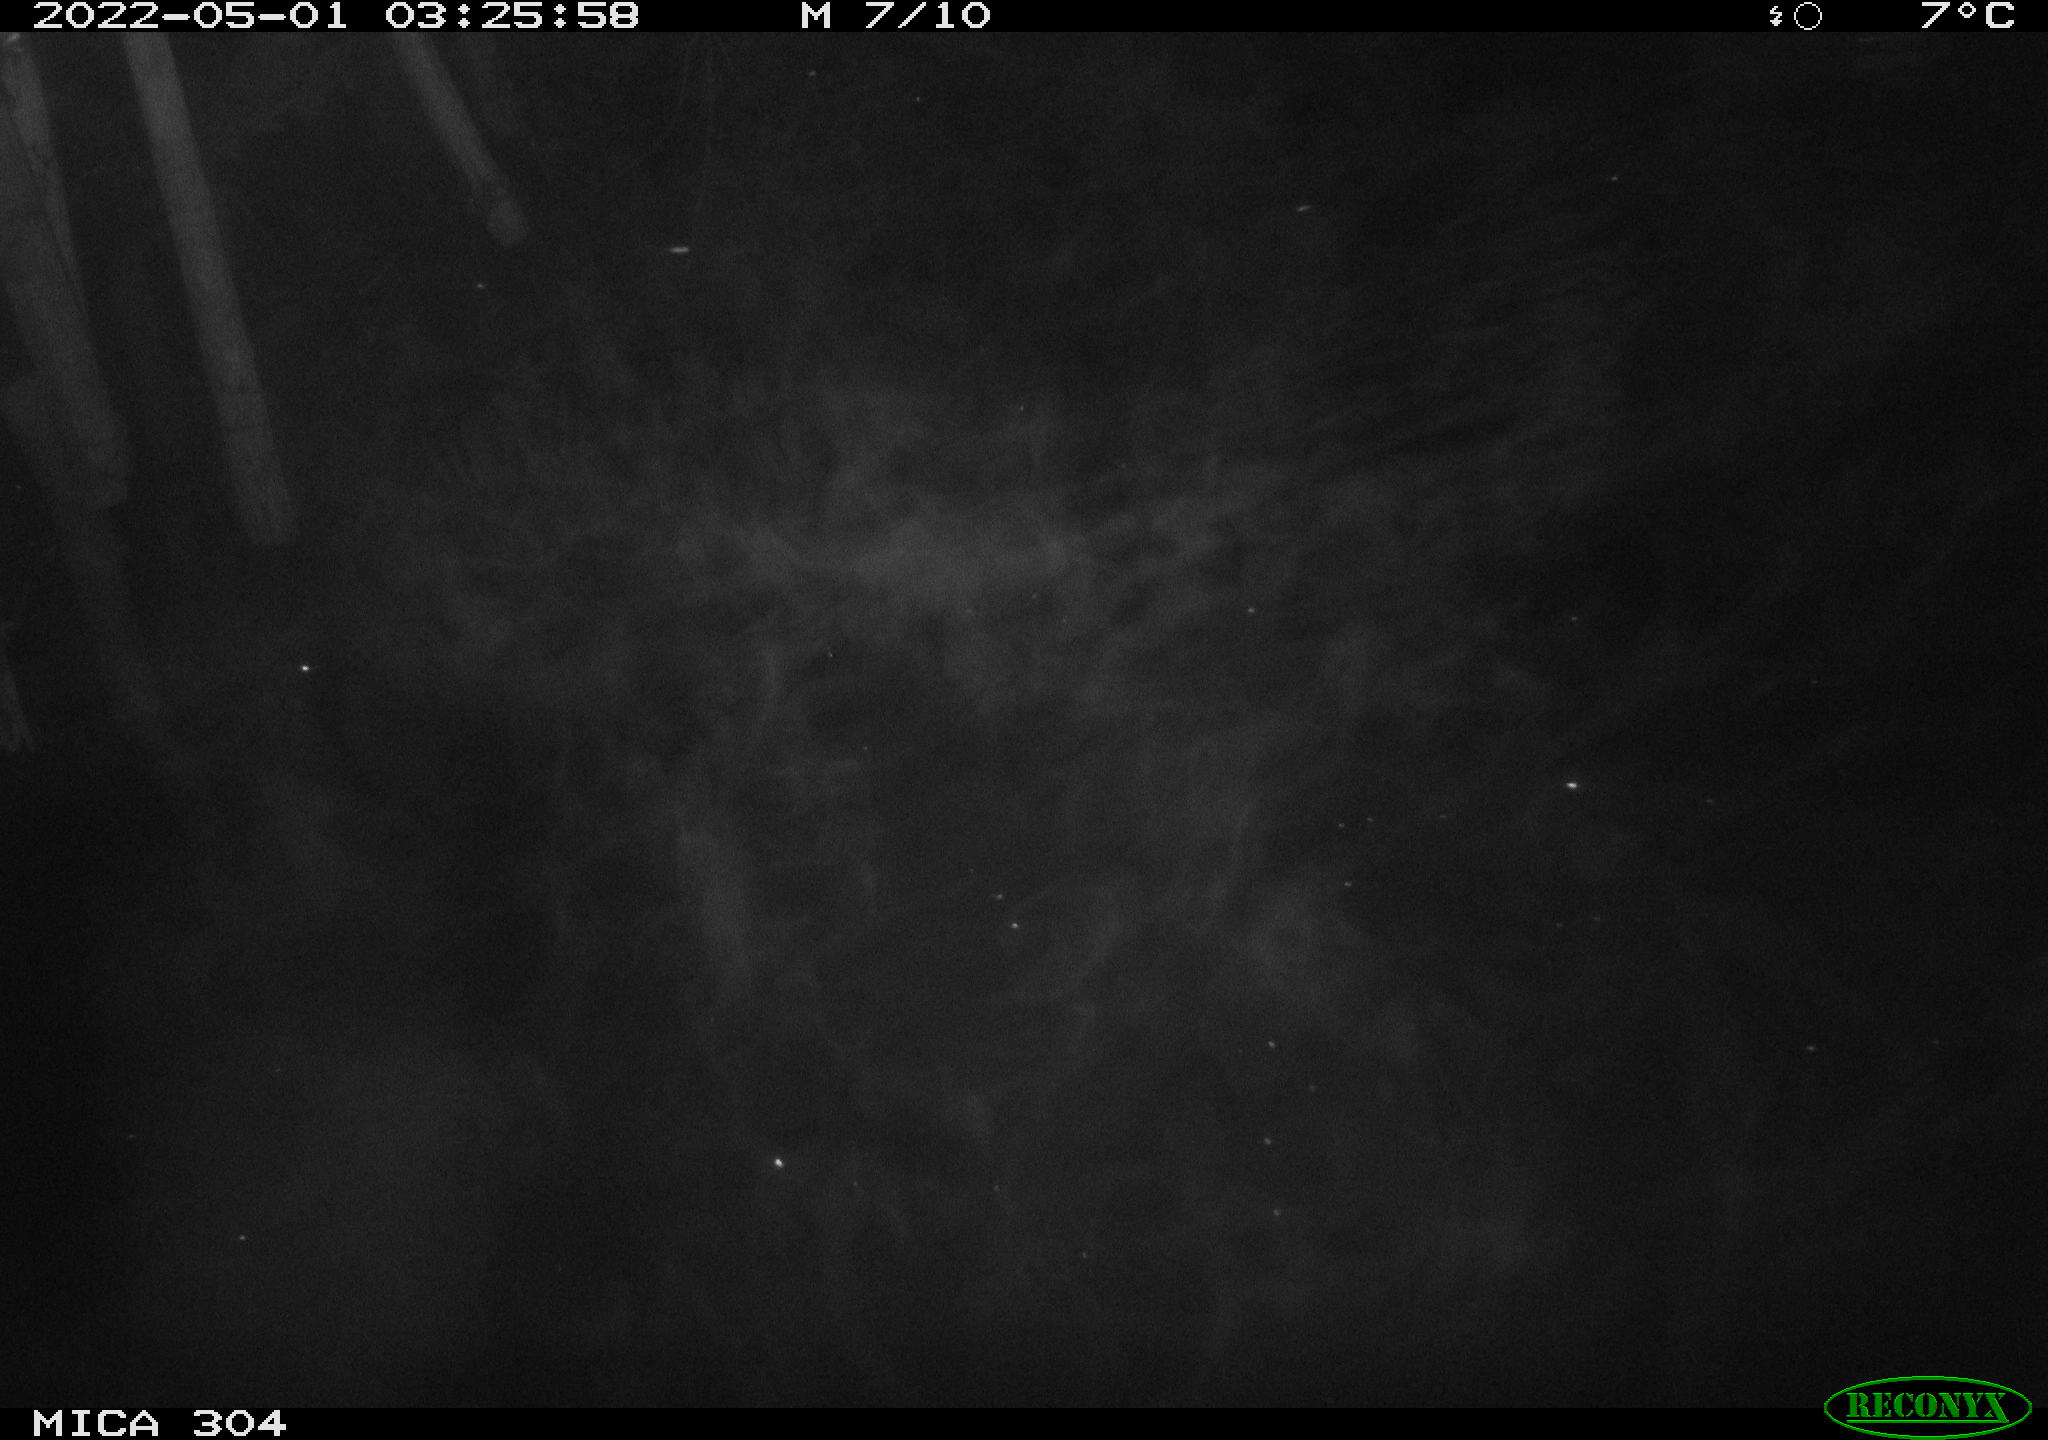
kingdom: Animalia
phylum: Chordata
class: Aves
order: Anseriformes
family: Anatidae
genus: Anas
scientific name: Anas platyrhynchos
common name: Mallard
